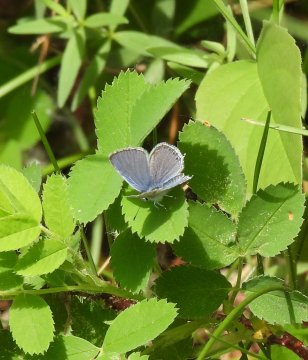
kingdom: Animalia
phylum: Arthropoda
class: Insecta
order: Lepidoptera
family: Lycaenidae
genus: Elkalyce
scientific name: Elkalyce amyntula
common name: Western Tailed-Blue
